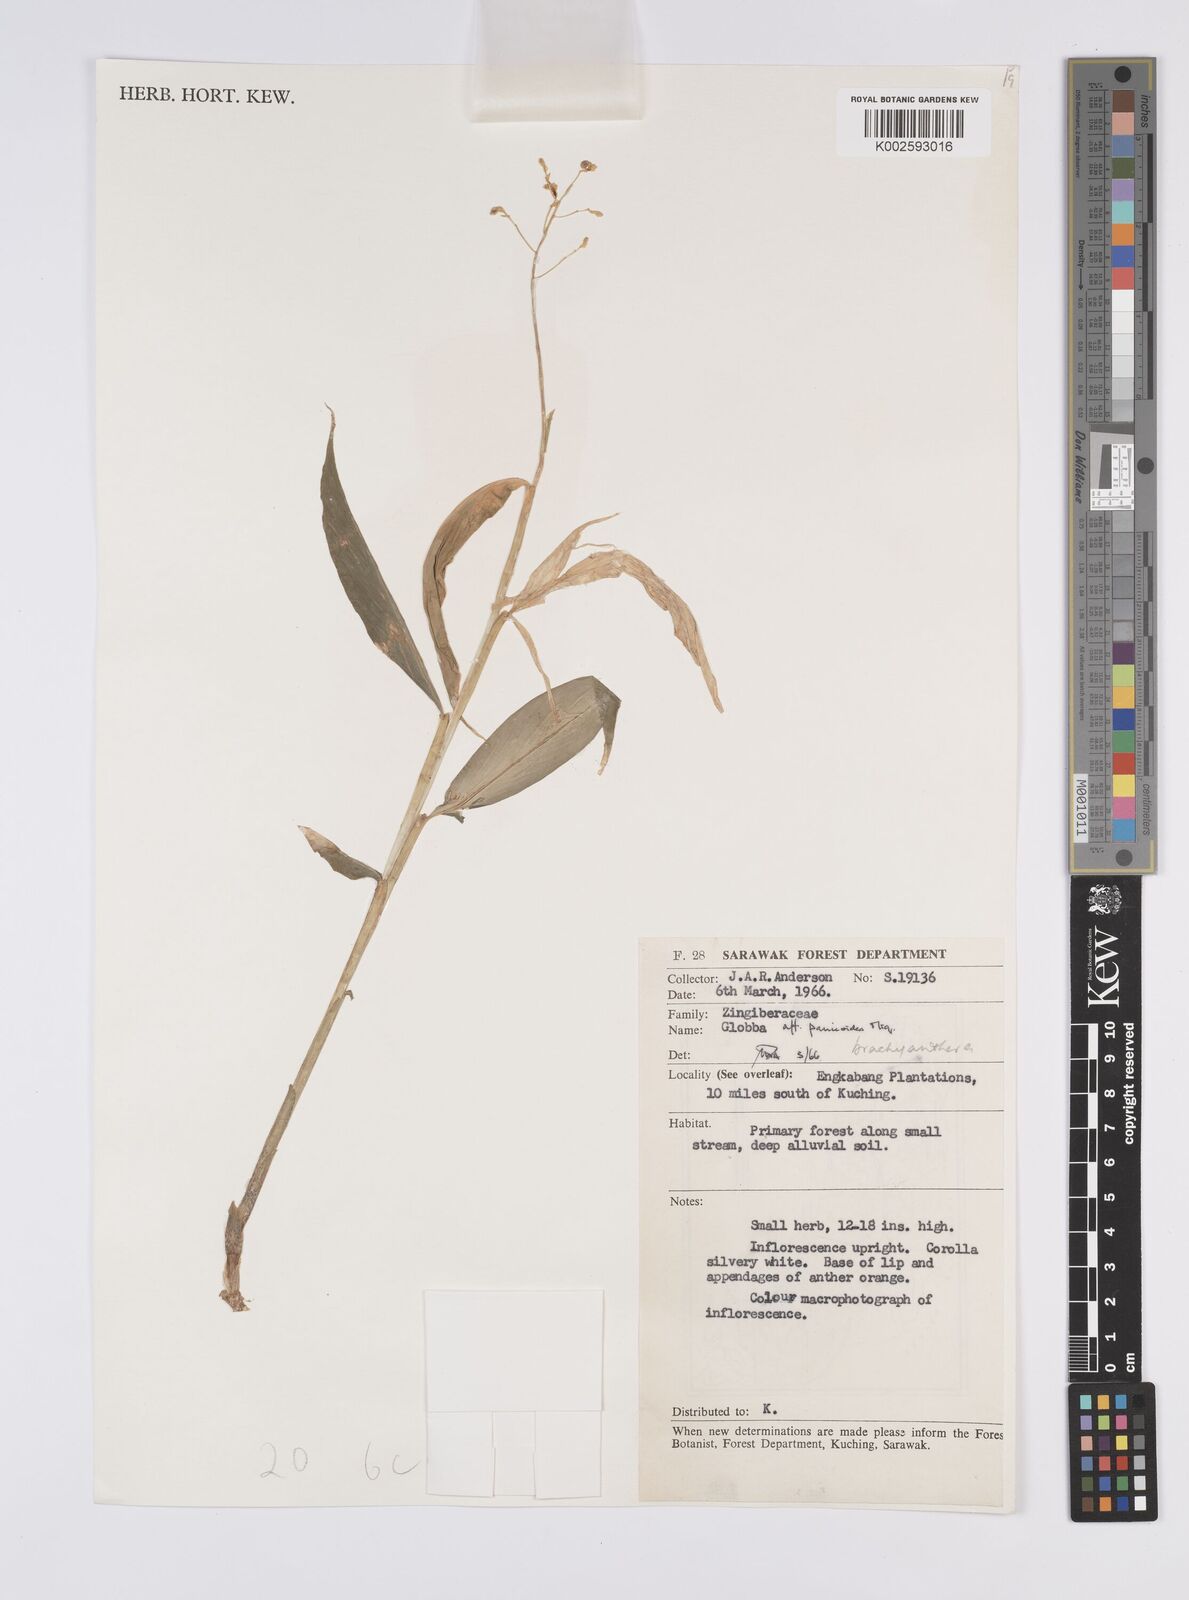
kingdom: Plantae
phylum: Tracheophyta
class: Liliopsida
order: Zingiberales
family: Zingiberaceae
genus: Globba
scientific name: Globba brachyanthera
